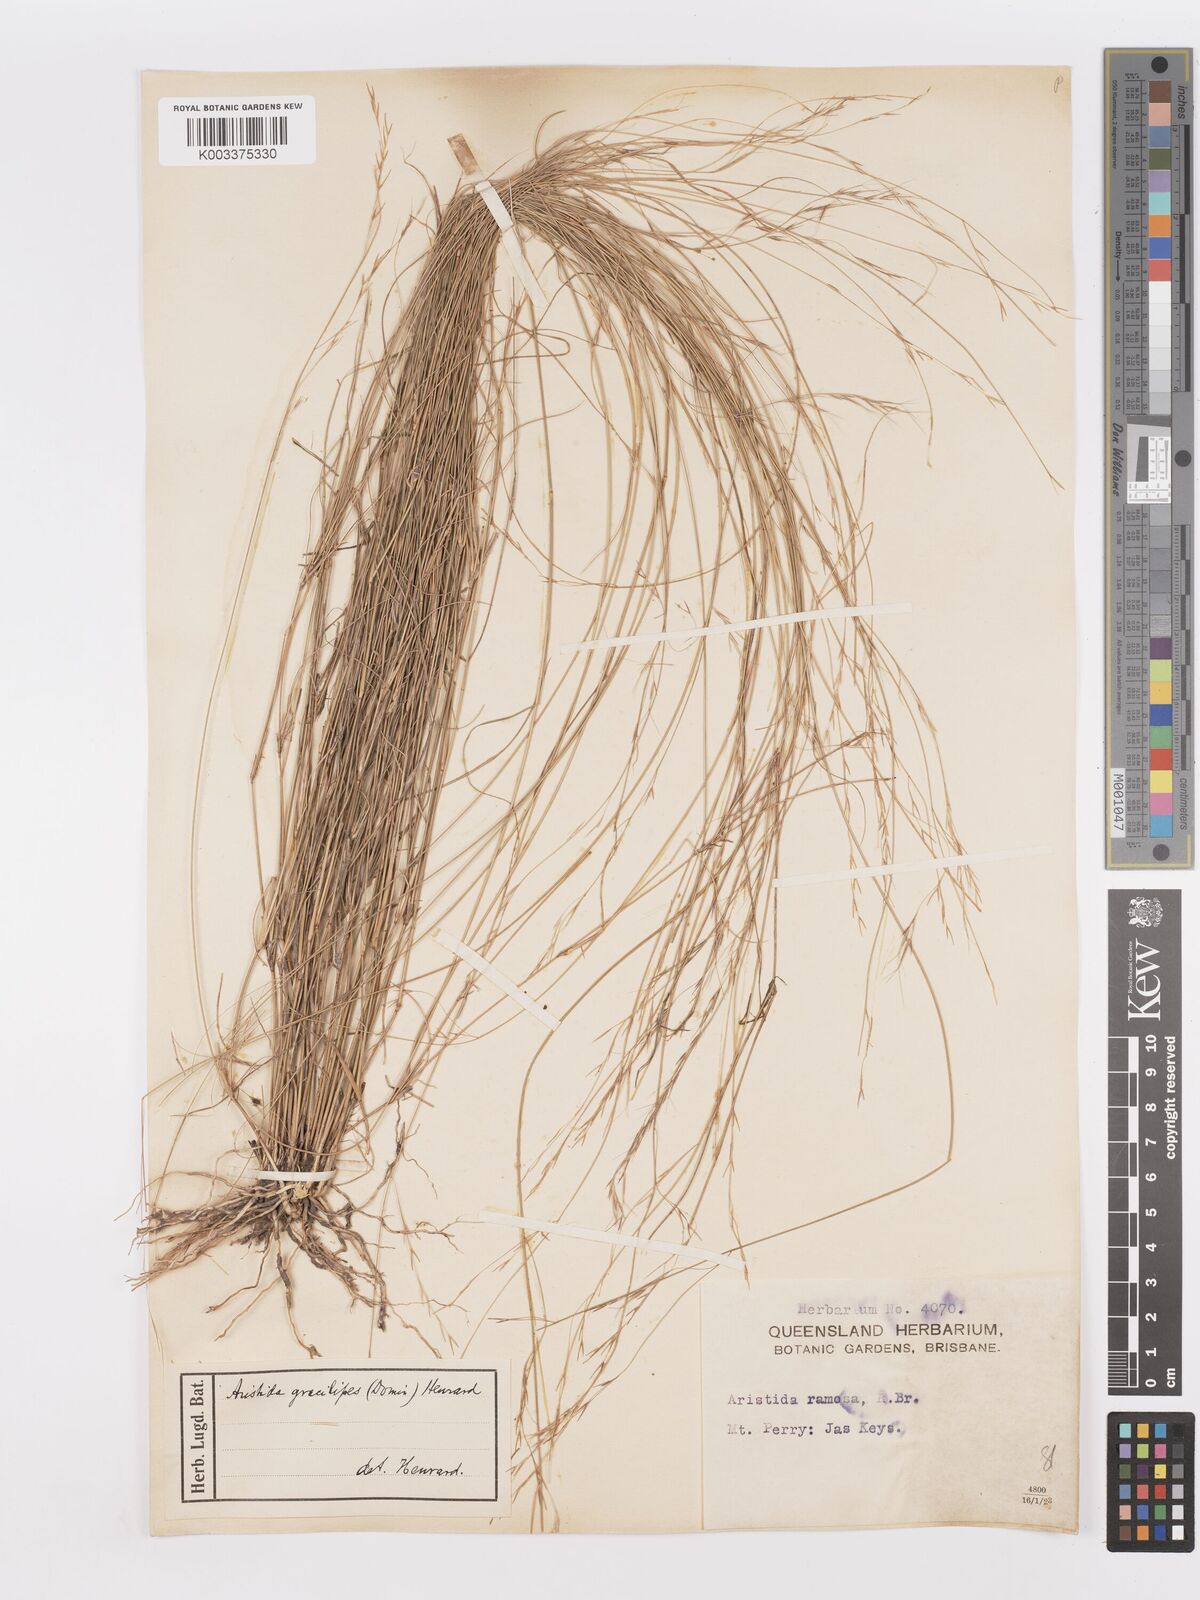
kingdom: Plantae
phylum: Tracheophyta
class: Liliopsida
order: Poales
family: Poaceae
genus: Aristida
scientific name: Aristida gracilipes
